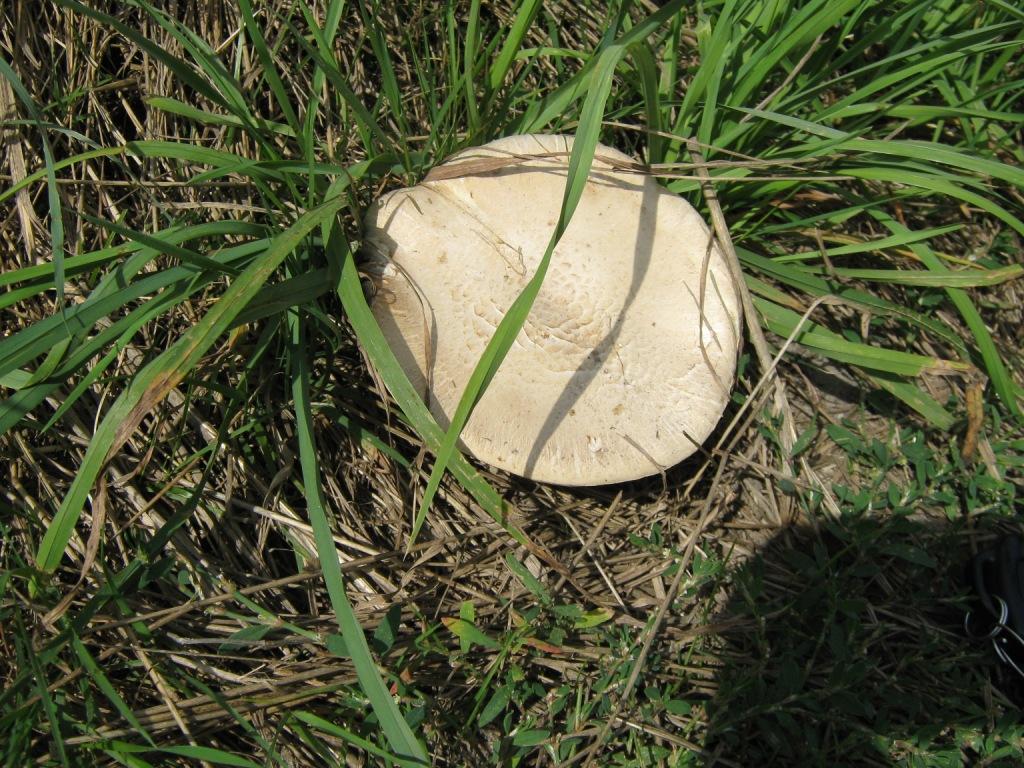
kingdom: Fungi
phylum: Basidiomycota
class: Agaricomycetes
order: Agaricales
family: Agaricaceae
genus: Agaricus
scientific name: Agaricus bitorquis
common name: vej-champignon
